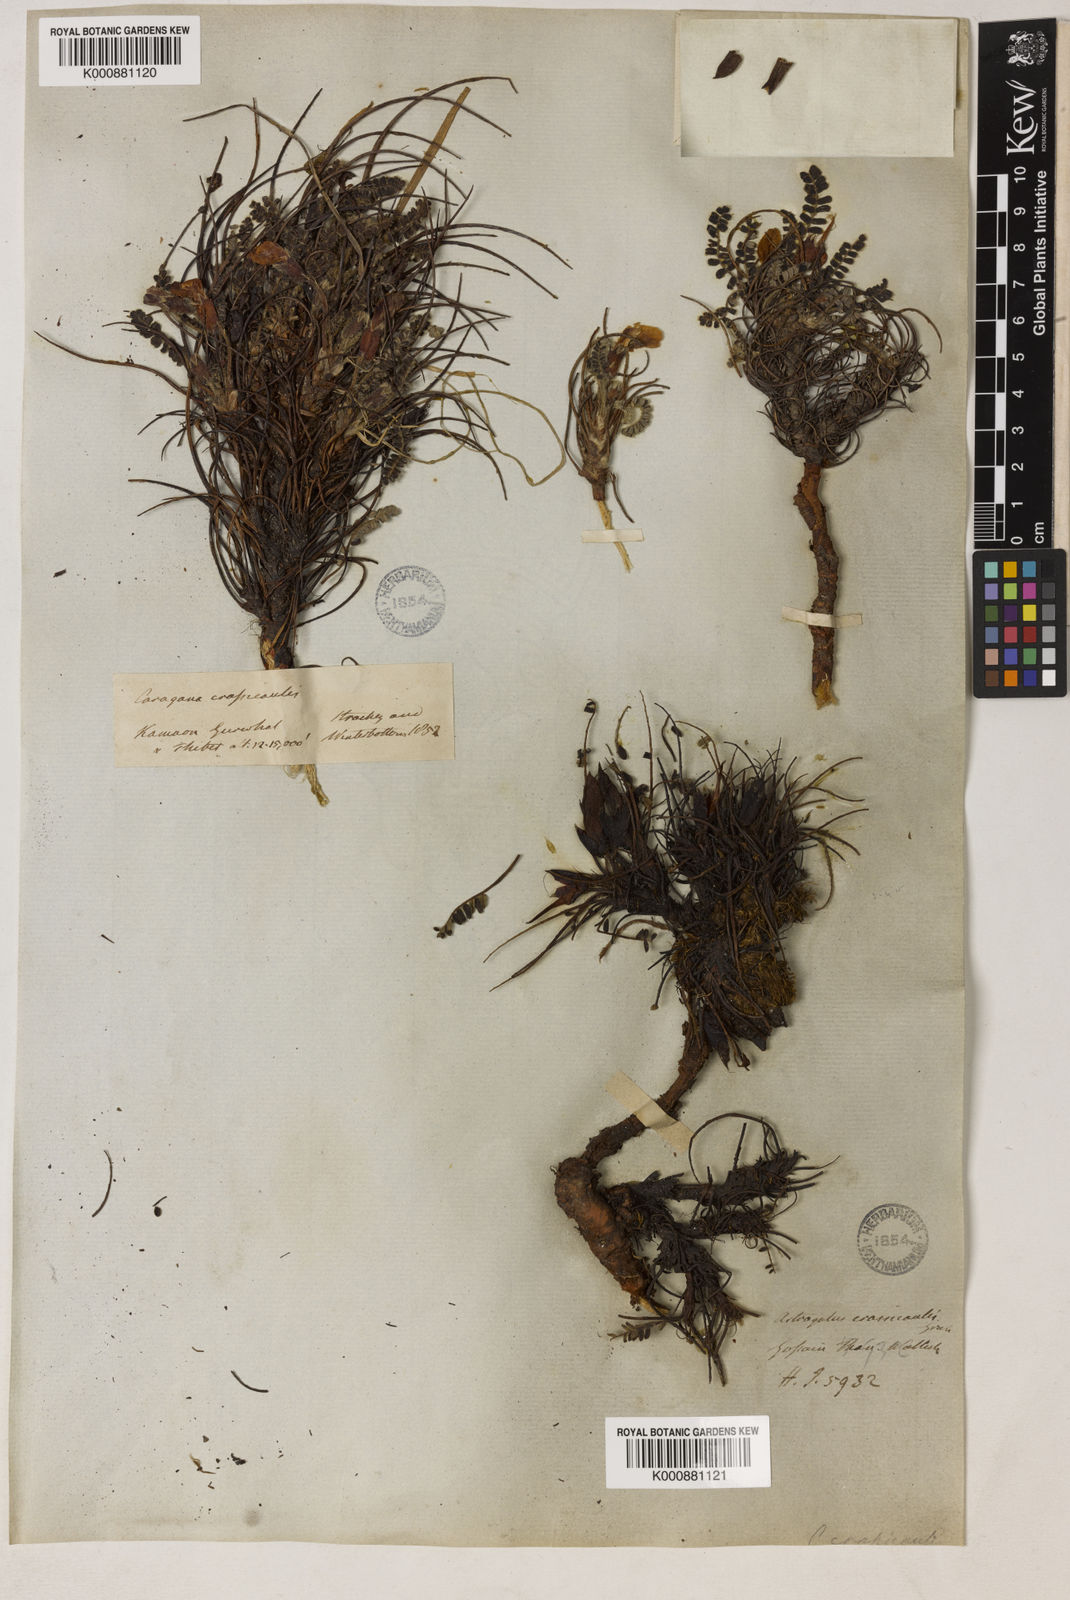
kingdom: Plantae
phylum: Tracheophyta
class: Magnoliopsida
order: Fabales
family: Fabaceae
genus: Chesneya
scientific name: Chesneya nubigena
